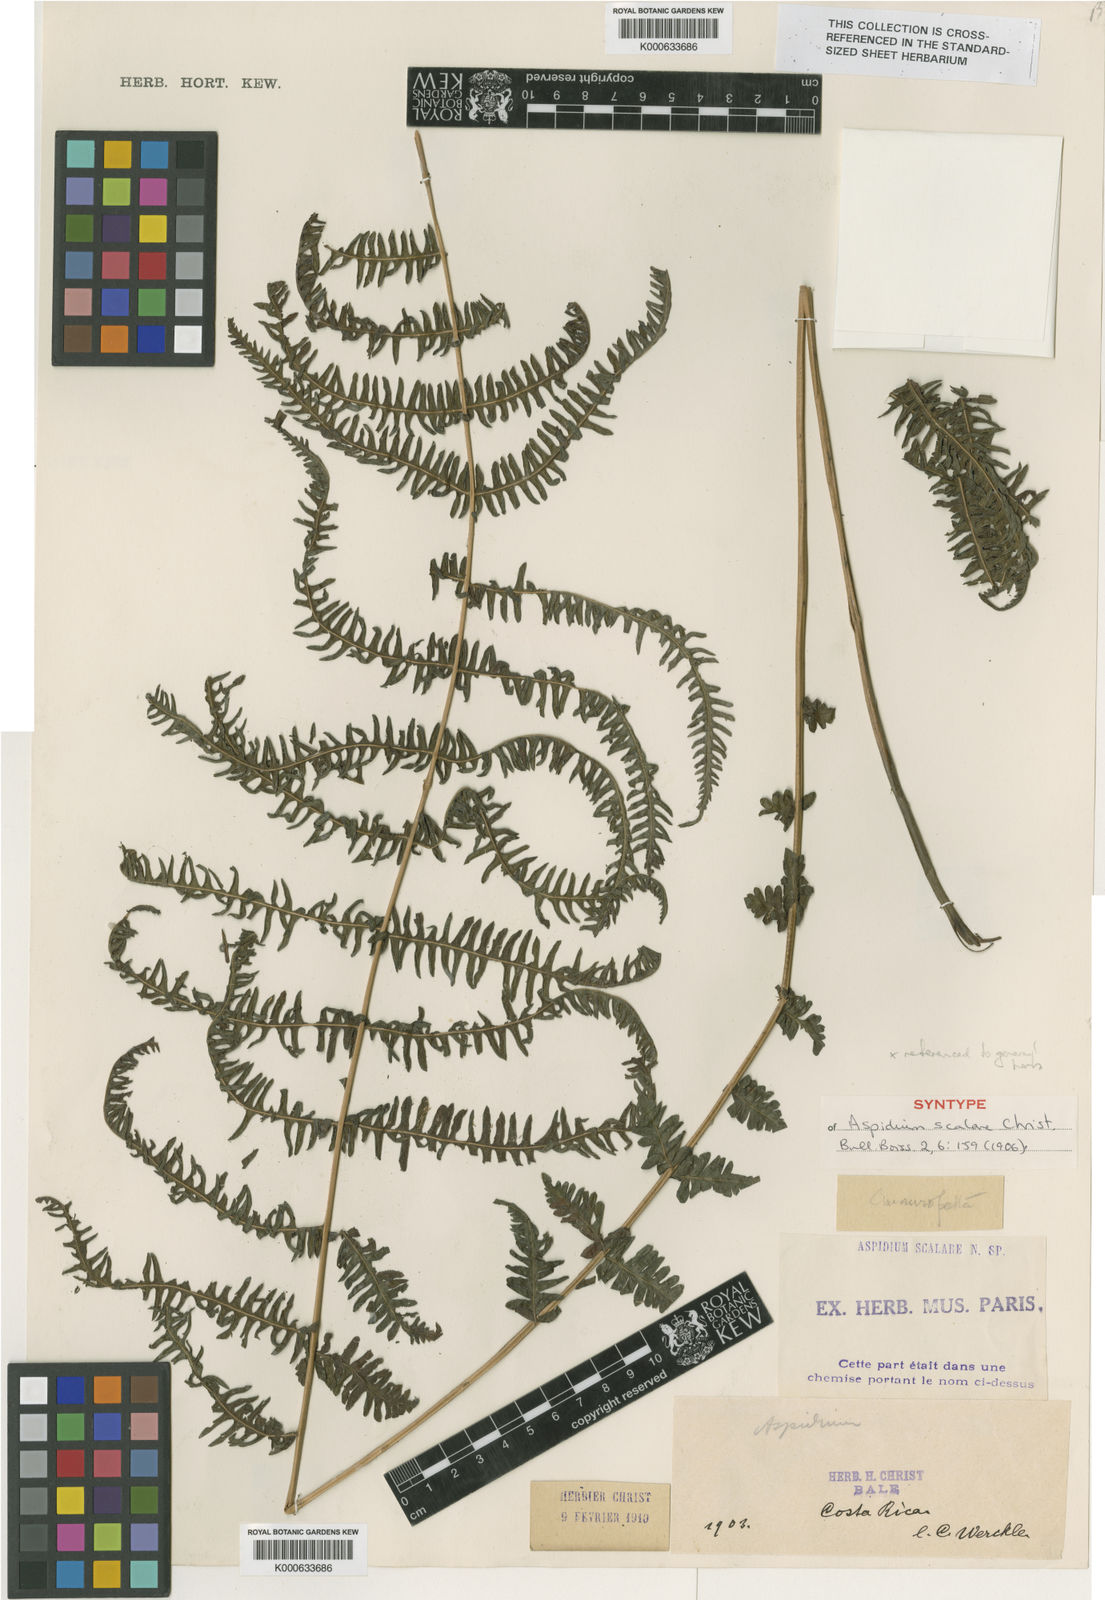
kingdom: Plantae
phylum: Tracheophyta
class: Polypodiopsida
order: Polypodiales
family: Thelypteridaceae
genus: Amauropelta
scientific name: Amauropelta
